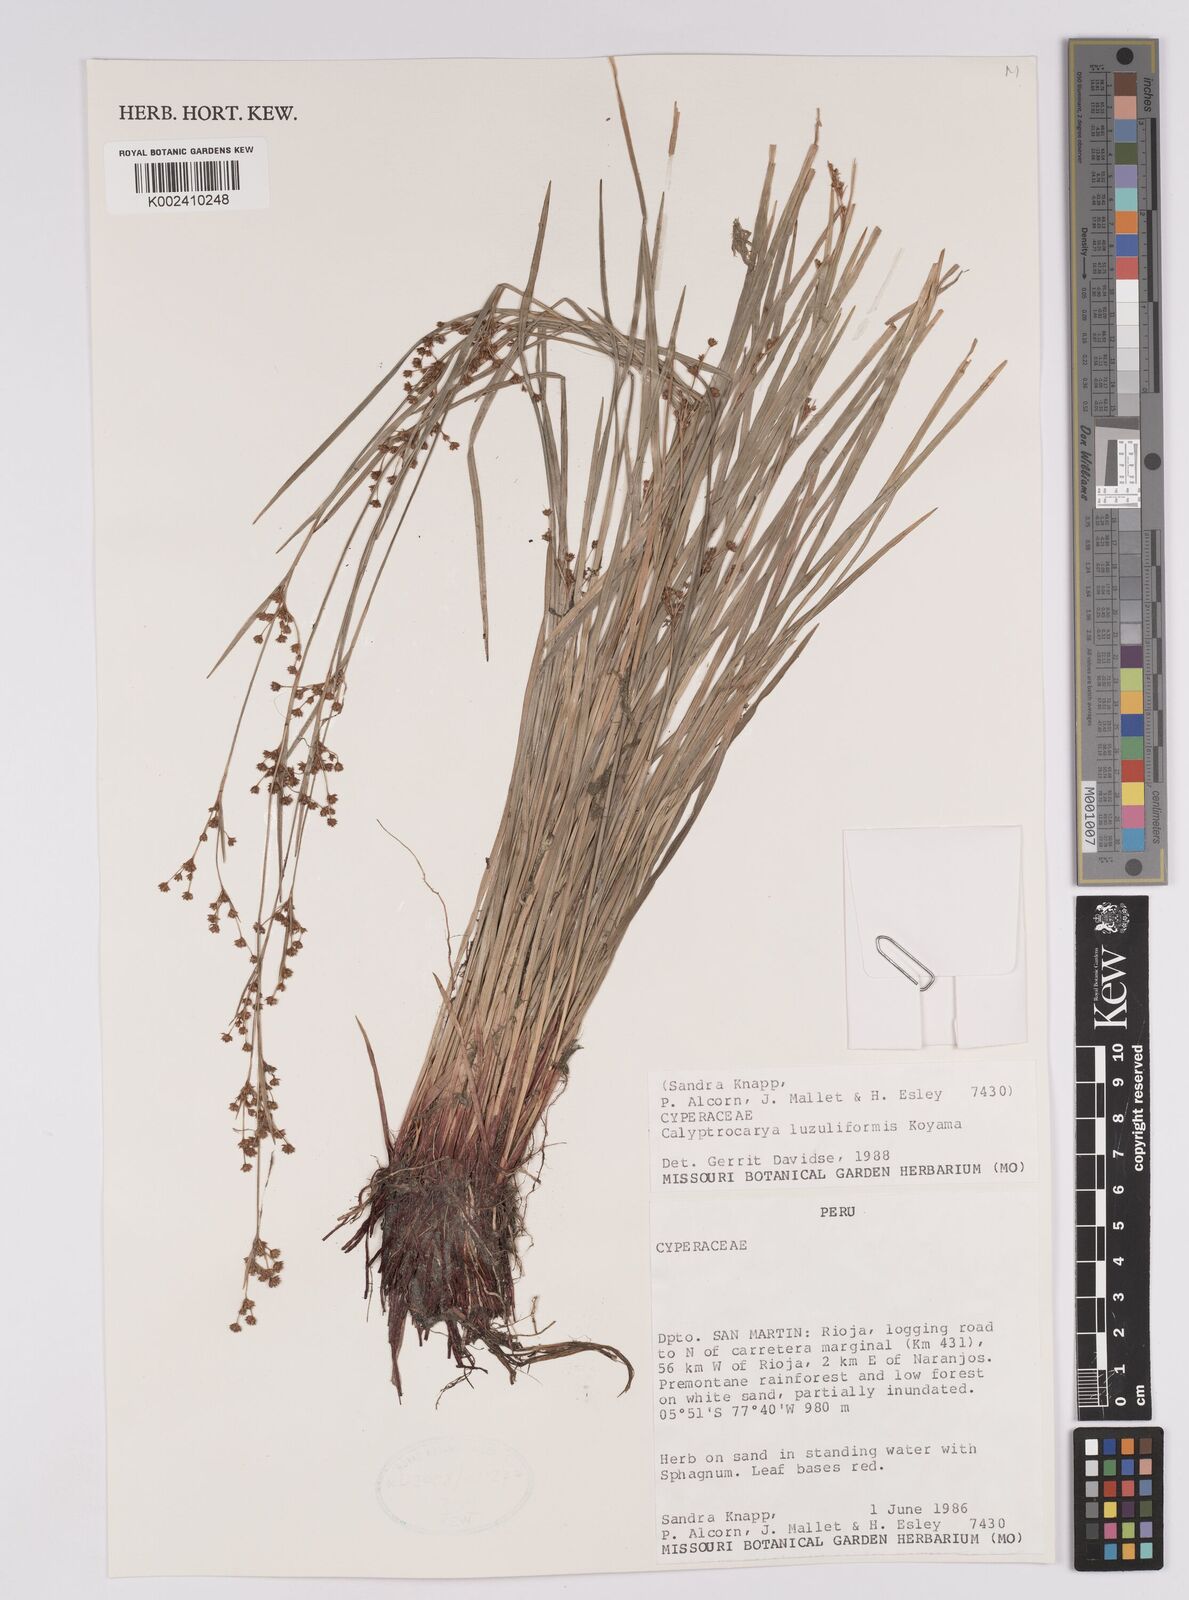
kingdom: Plantae
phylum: Tracheophyta
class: Liliopsida
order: Poales
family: Cyperaceae
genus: Calyptrocarya
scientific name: Calyptrocarya luzuliformis
